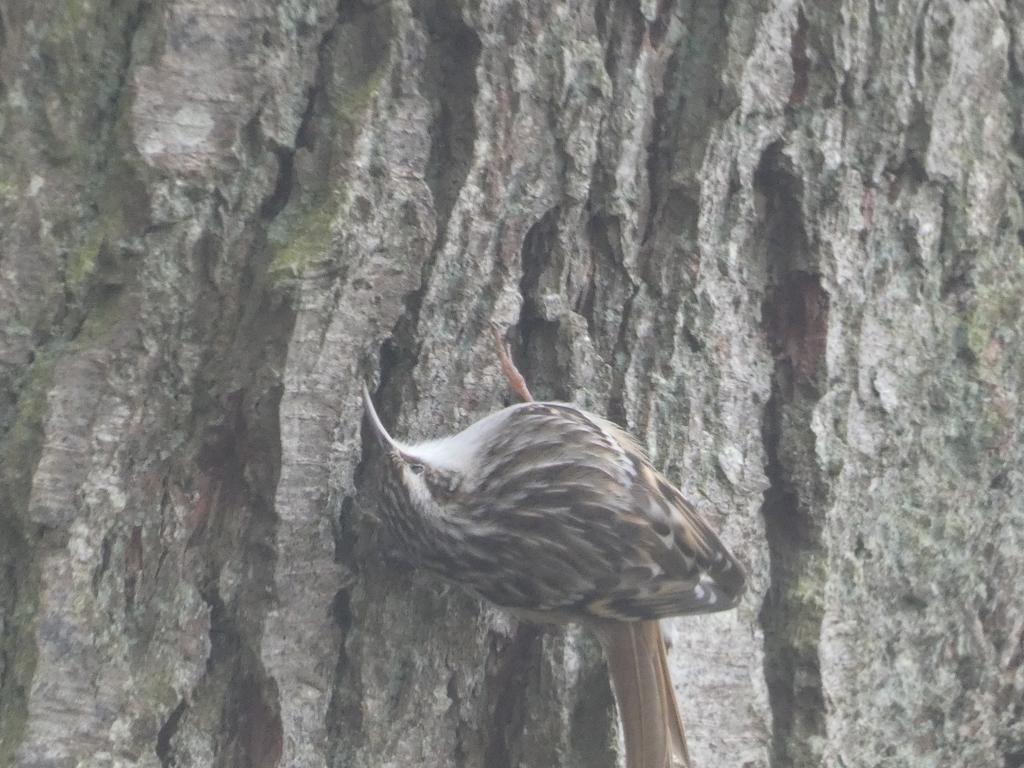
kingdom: Animalia
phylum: Chordata
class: Aves
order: Passeriformes
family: Certhiidae
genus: Certhia
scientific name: Certhia brachydactyla
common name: Korttået træløber
